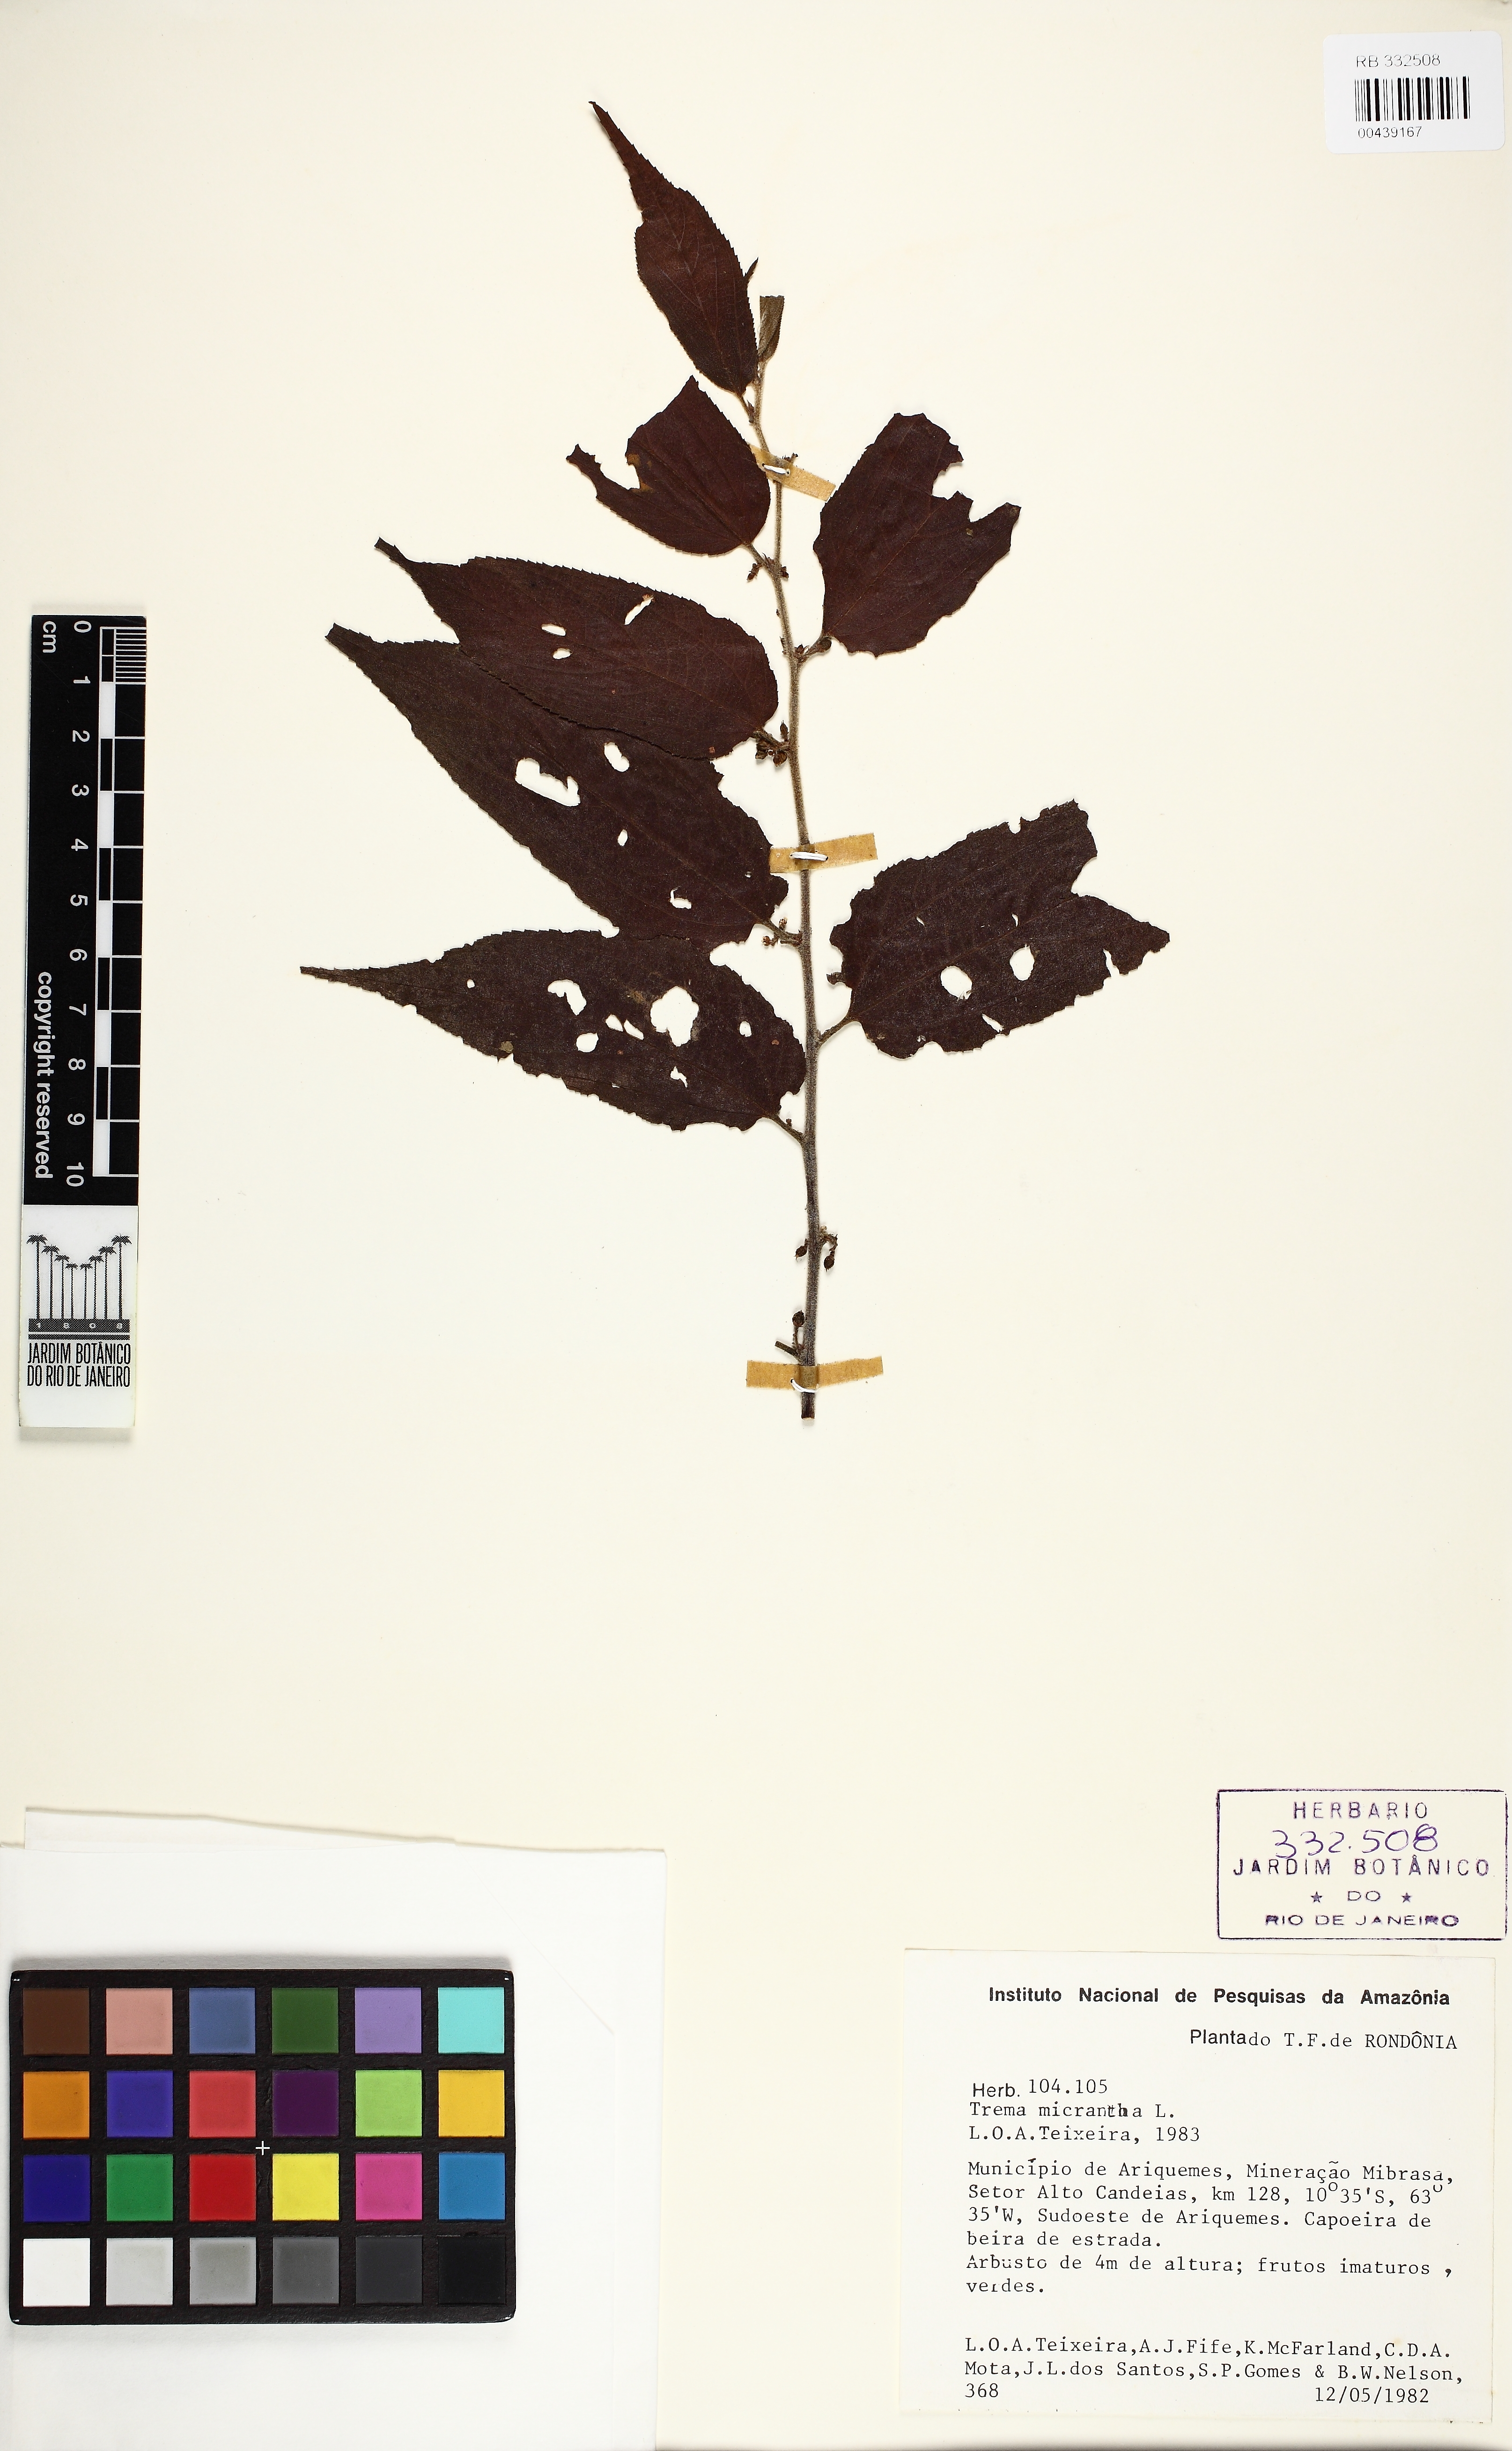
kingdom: Plantae
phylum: Tracheophyta
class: Magnoliopsida
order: Rosales
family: Cannabaceae
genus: Trema
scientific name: Trema micranthum
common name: Jamaican nettletree
